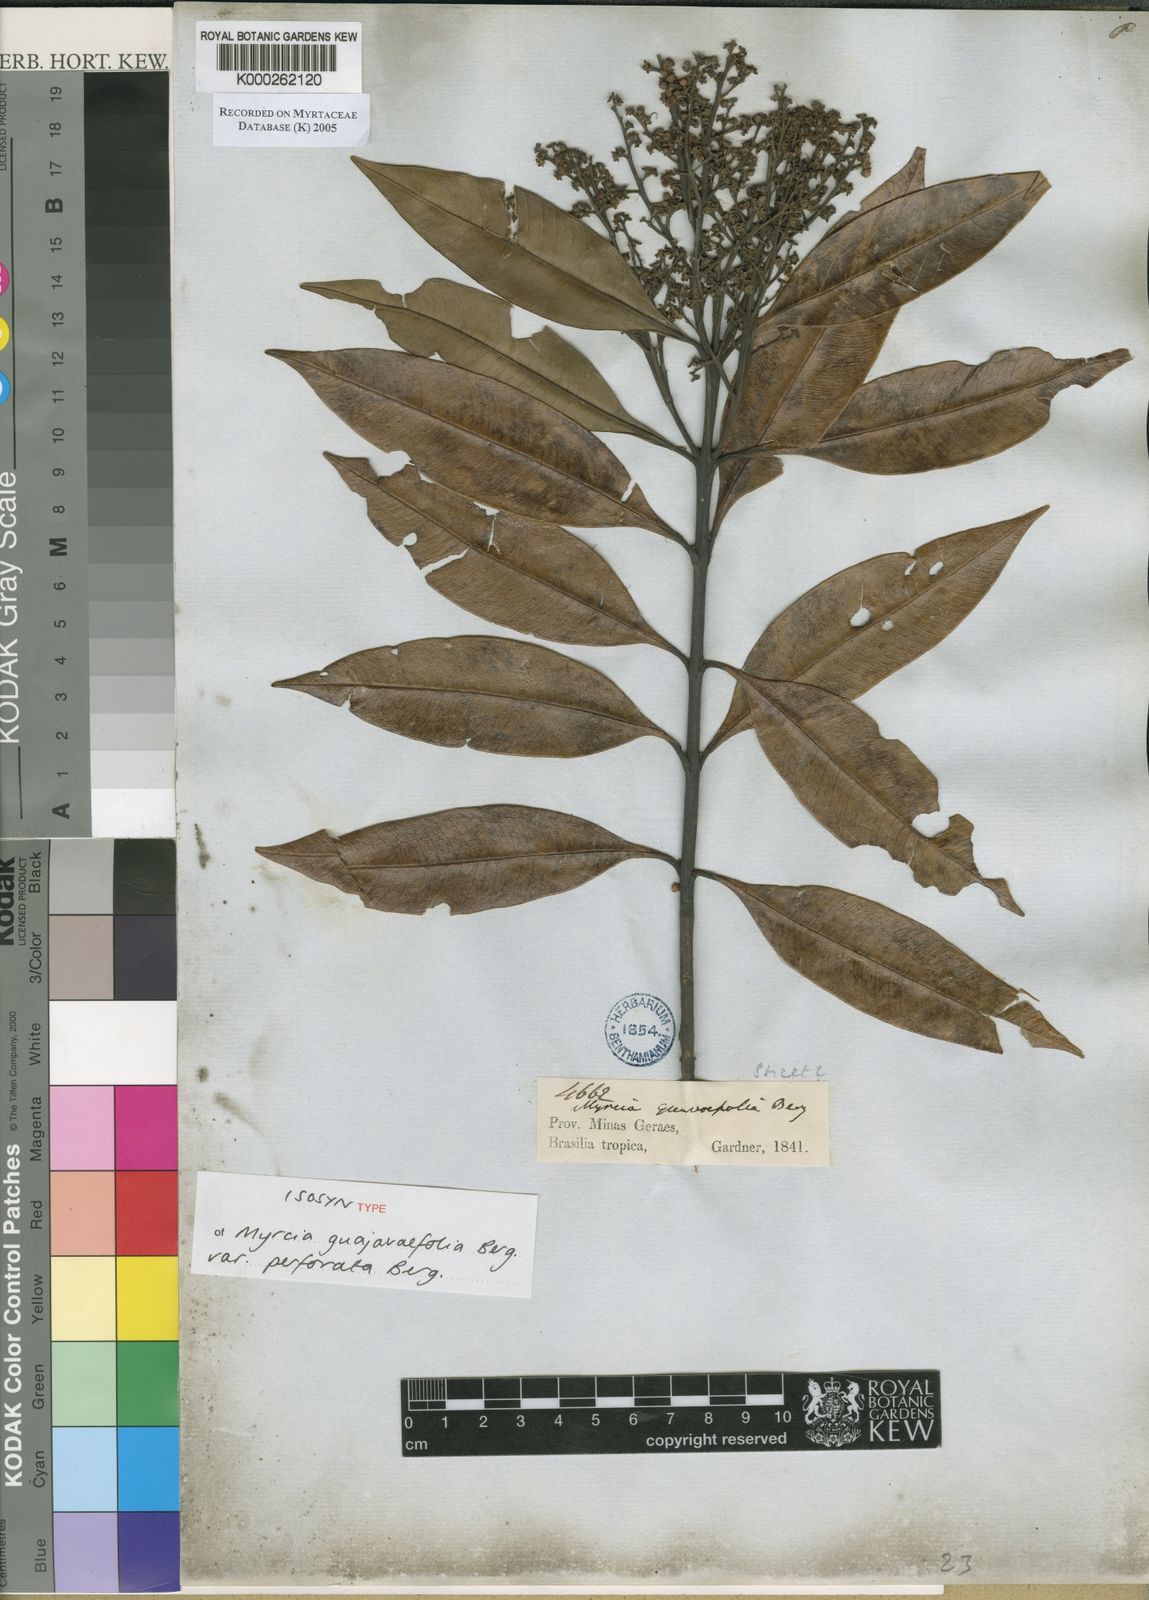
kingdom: Plantae
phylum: Tracheophyta
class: Magnoliopsida
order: Myrtales
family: Myrtaceae
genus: Myrcia
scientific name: Myrcia splendens
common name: Surinam cherry
